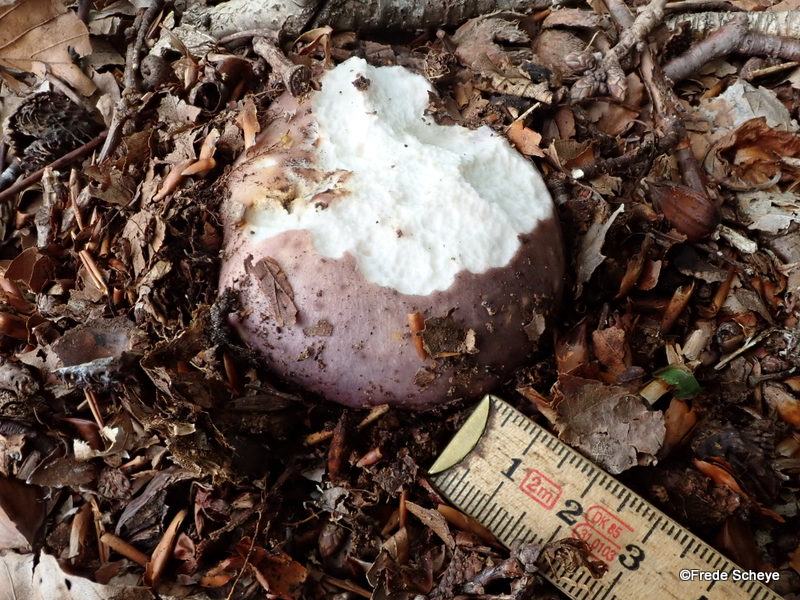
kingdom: Fungi
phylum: Basidiomycota
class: Agaricomycetes
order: Russulales
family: Russulaceae
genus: Russula
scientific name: Russula cyanoxantha
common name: broget skørhat
